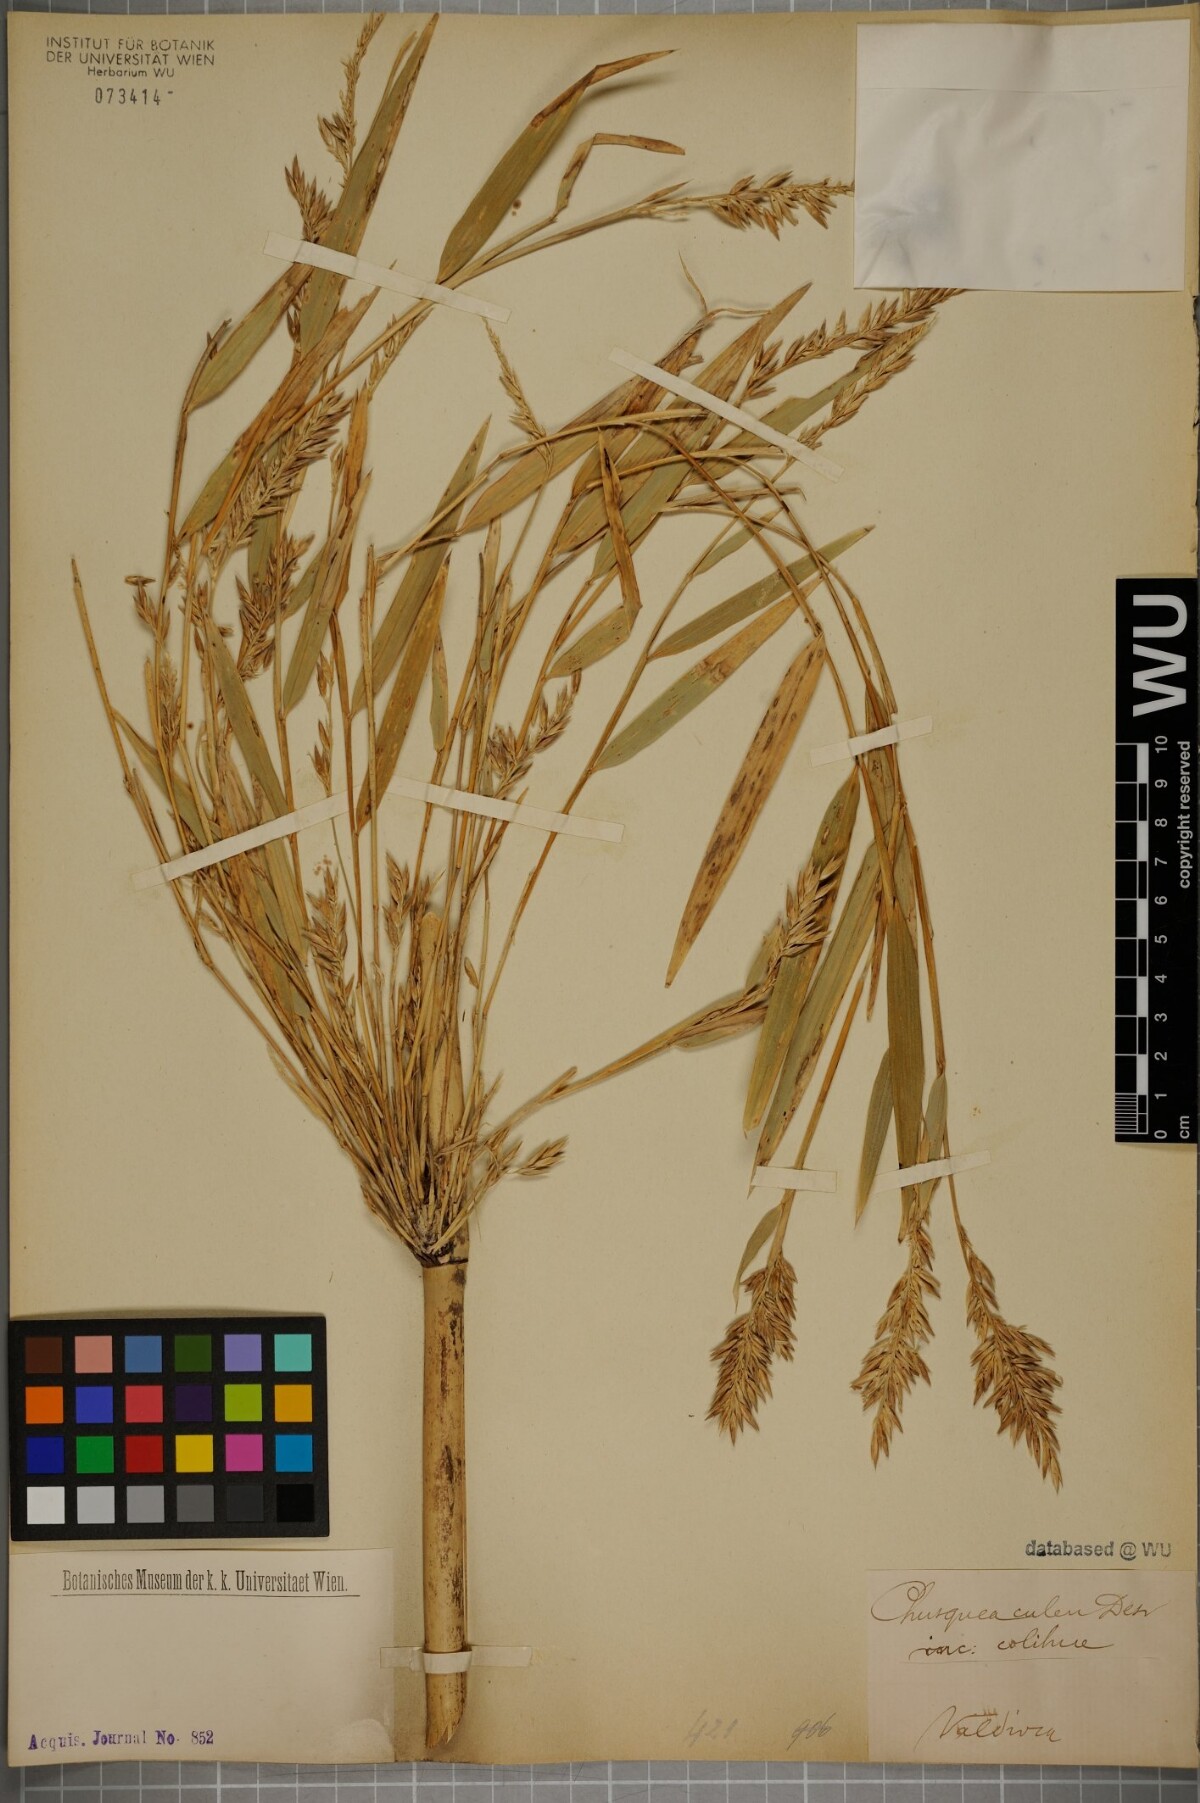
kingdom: Plantae
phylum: Tracheophyta
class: Liliopsida
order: Poales
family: Poaceae
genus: Chusquea
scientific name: Chusquea culeou
